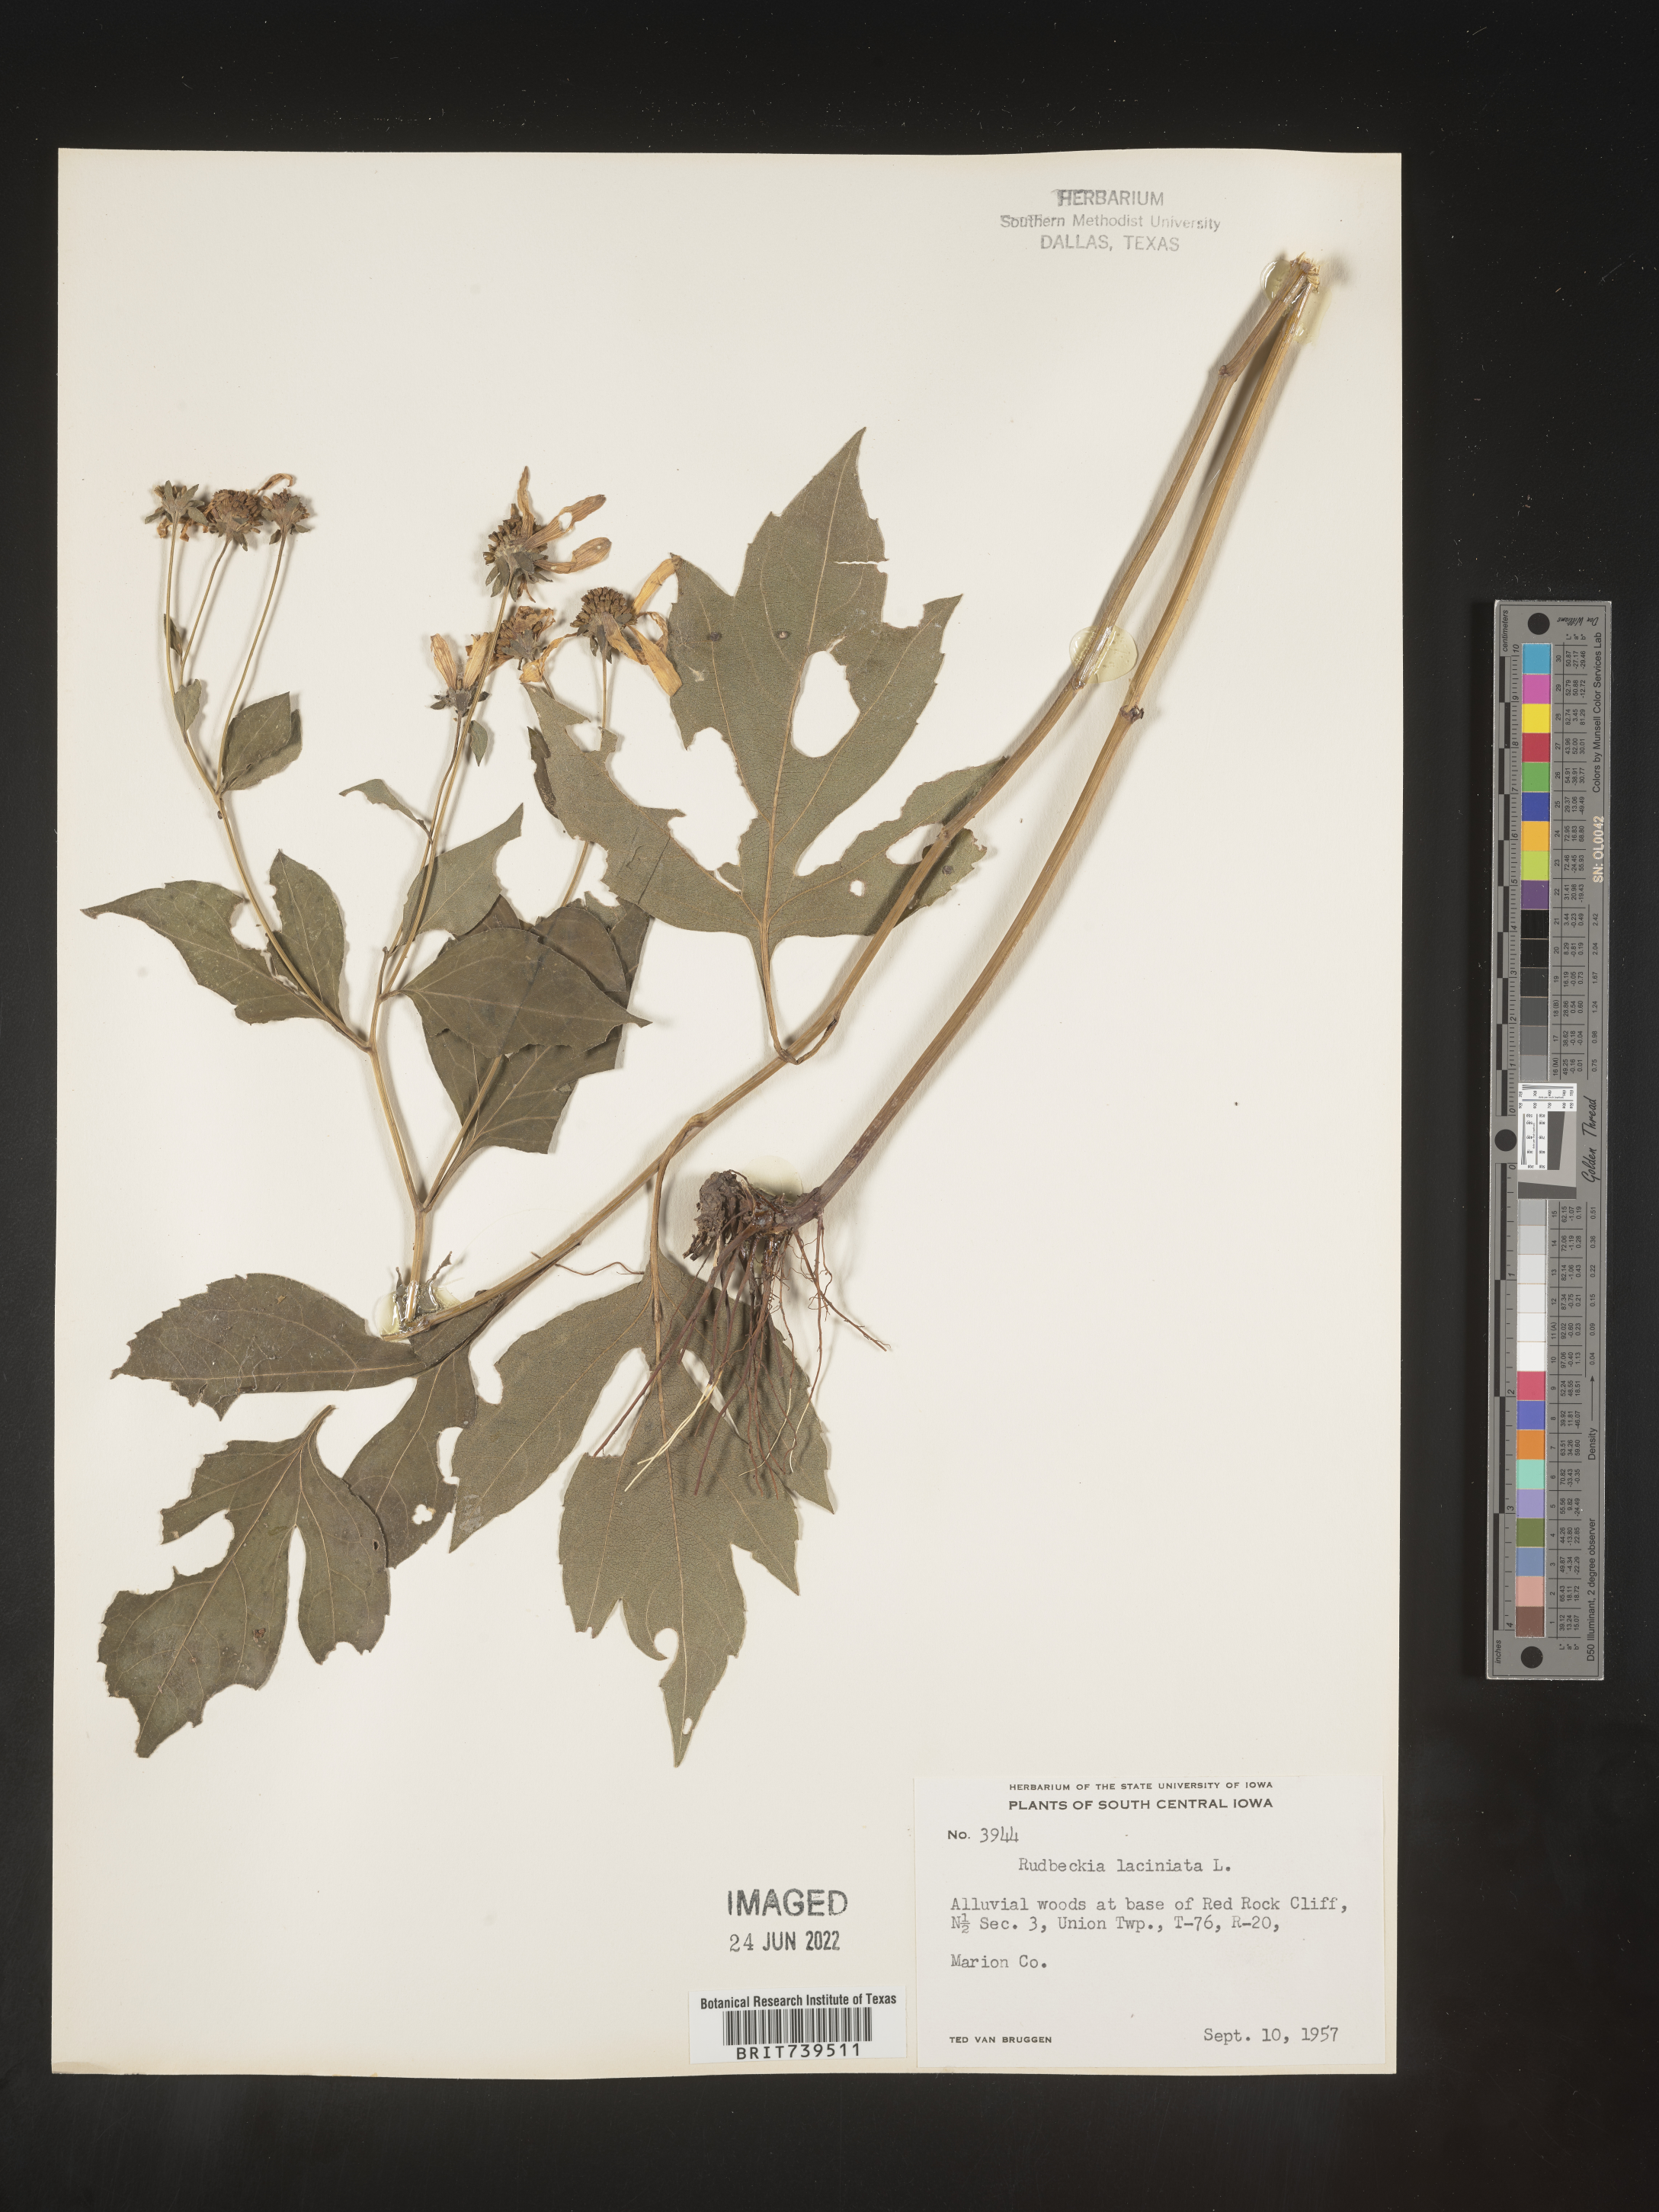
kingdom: Plantae
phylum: Tracheophyta
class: Magnoliopsida
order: Asterales
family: Asteraceae
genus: Rudbeckia
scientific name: Rudbeckia laciniata
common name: Coneflower
